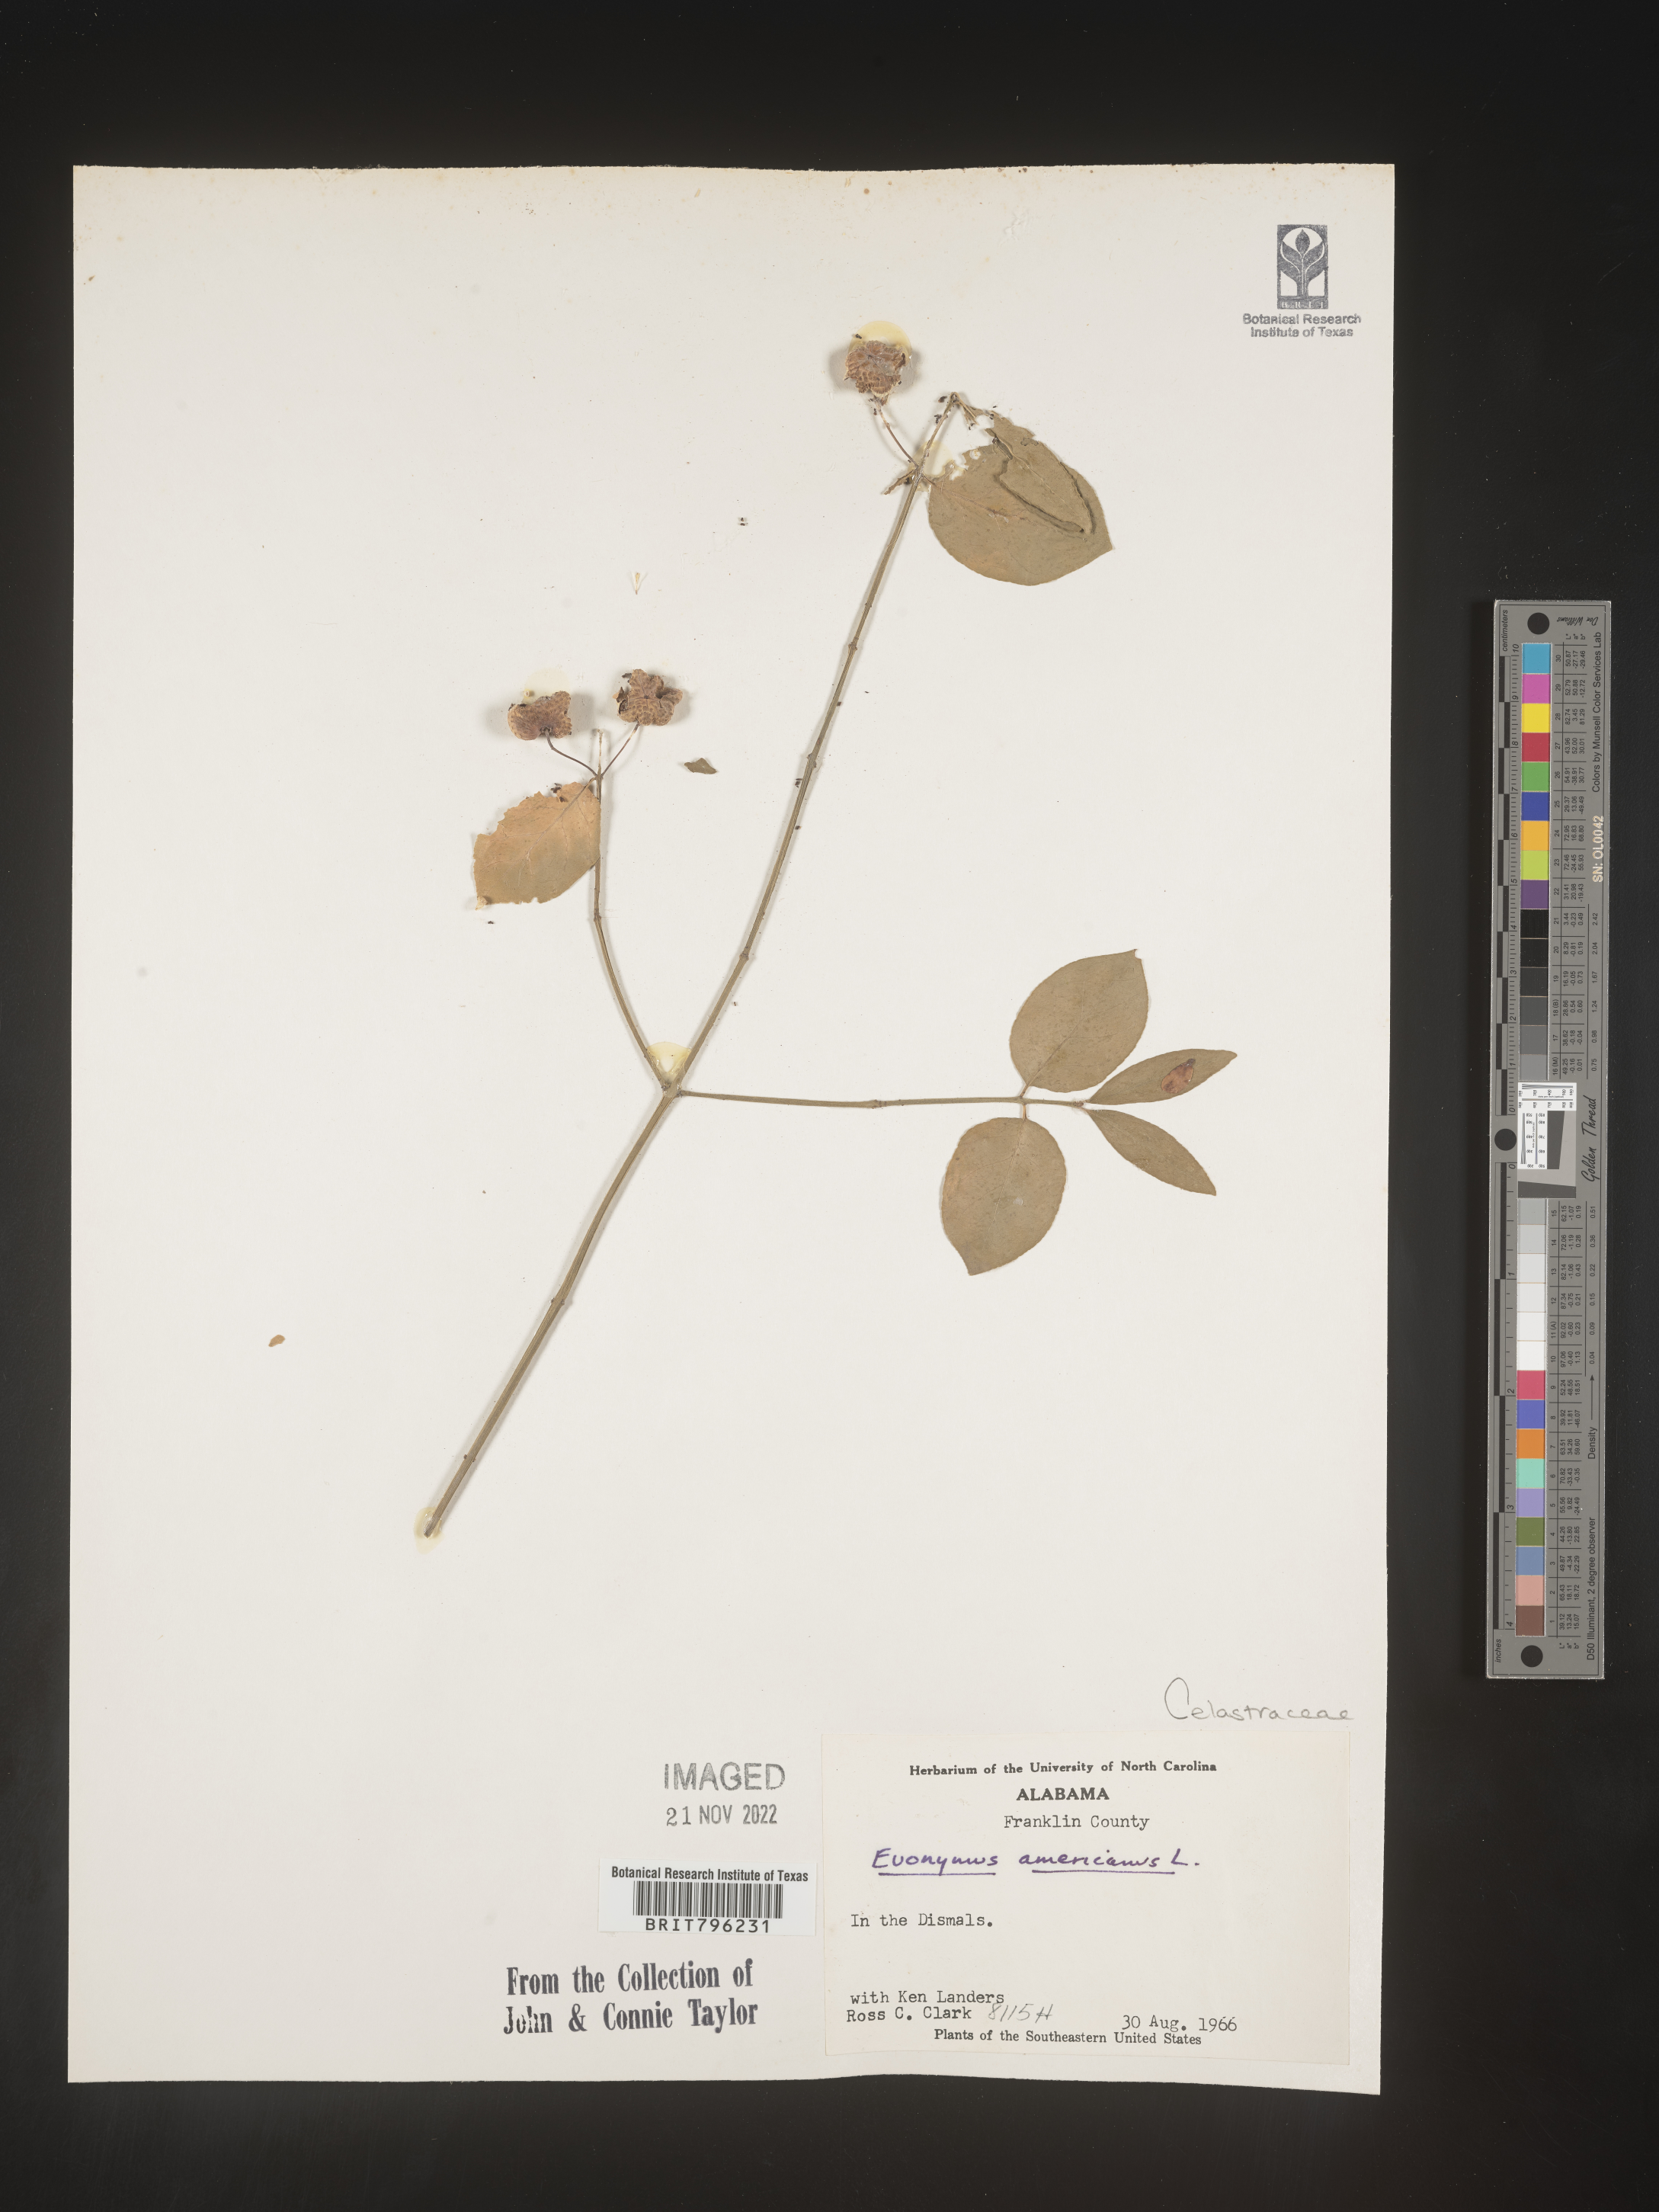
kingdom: Plantae
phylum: Tracheophyta
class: Magnoliopsida
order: Celastrales
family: Celastraceae
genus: Euonymus
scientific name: Euonymus americanus
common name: Bursting-heart
